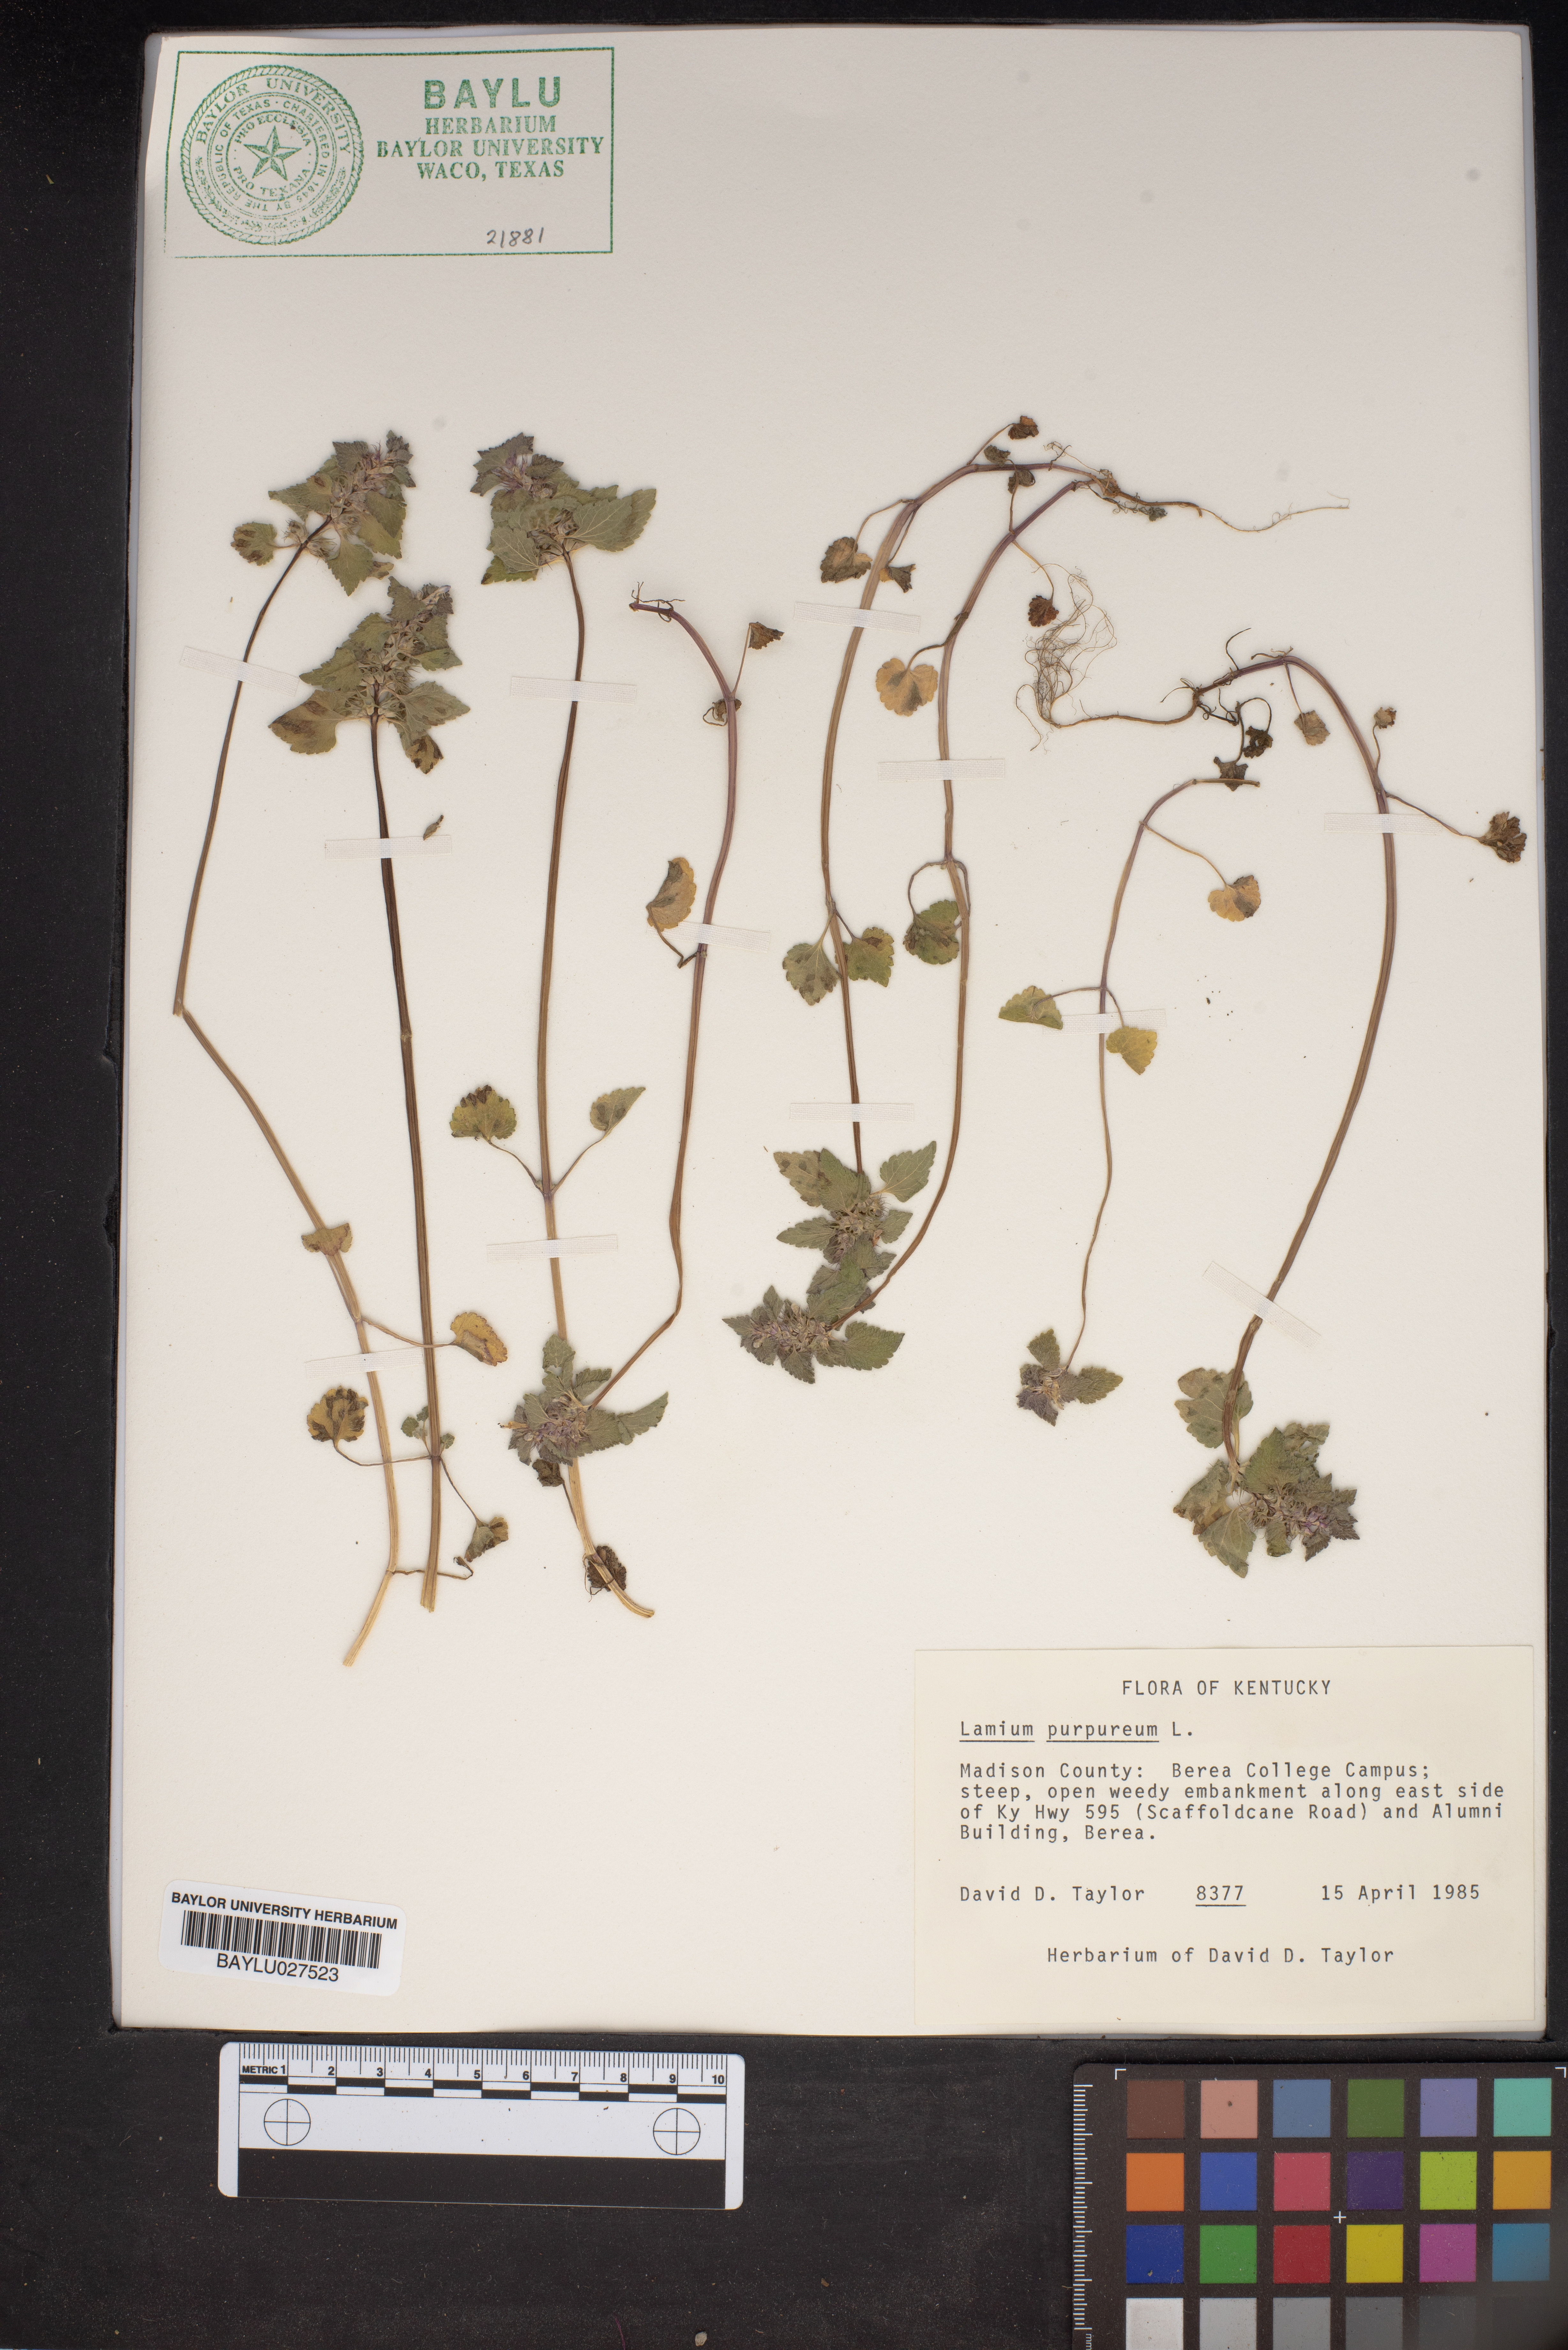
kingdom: Plantae
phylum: Tracheophyta
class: Magnoliopsida
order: Lamiales
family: Lamiaceae
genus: Lamium
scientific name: Lamium purpureum
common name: Red dead-nettle
